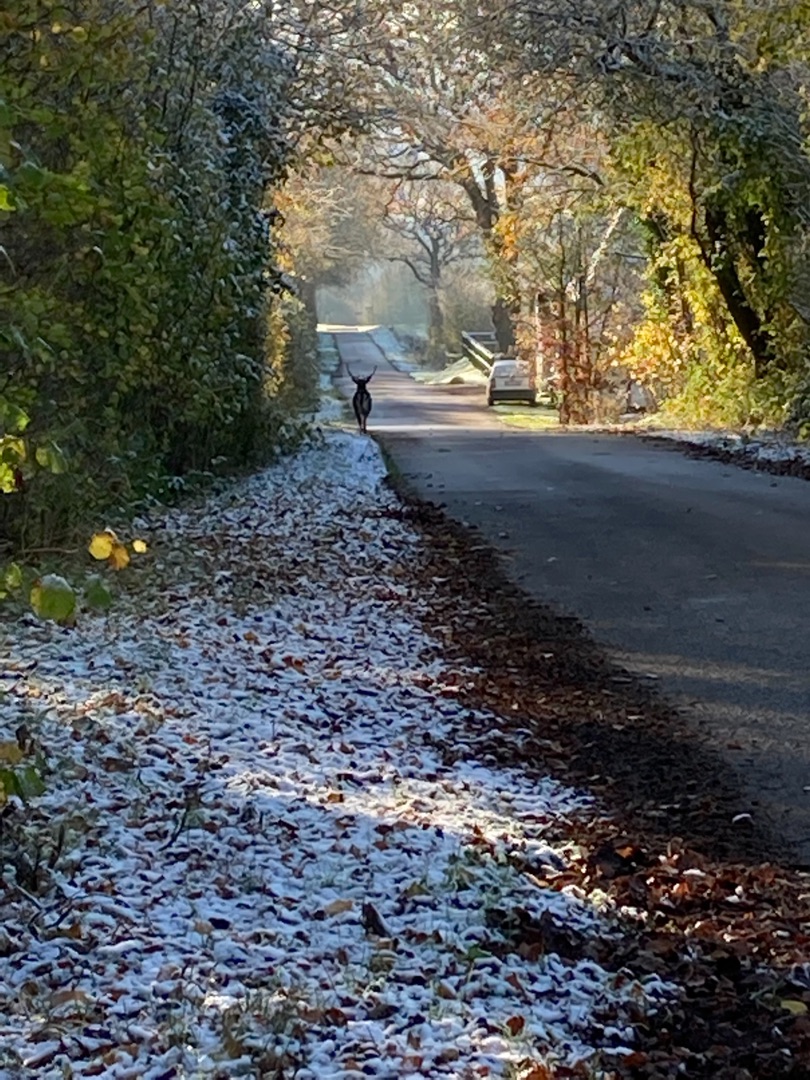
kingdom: Animalia
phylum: Chordata
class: Mammalia
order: Artiodactyla
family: Cervidae
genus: Dama
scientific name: Dama dama
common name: Dådyr
